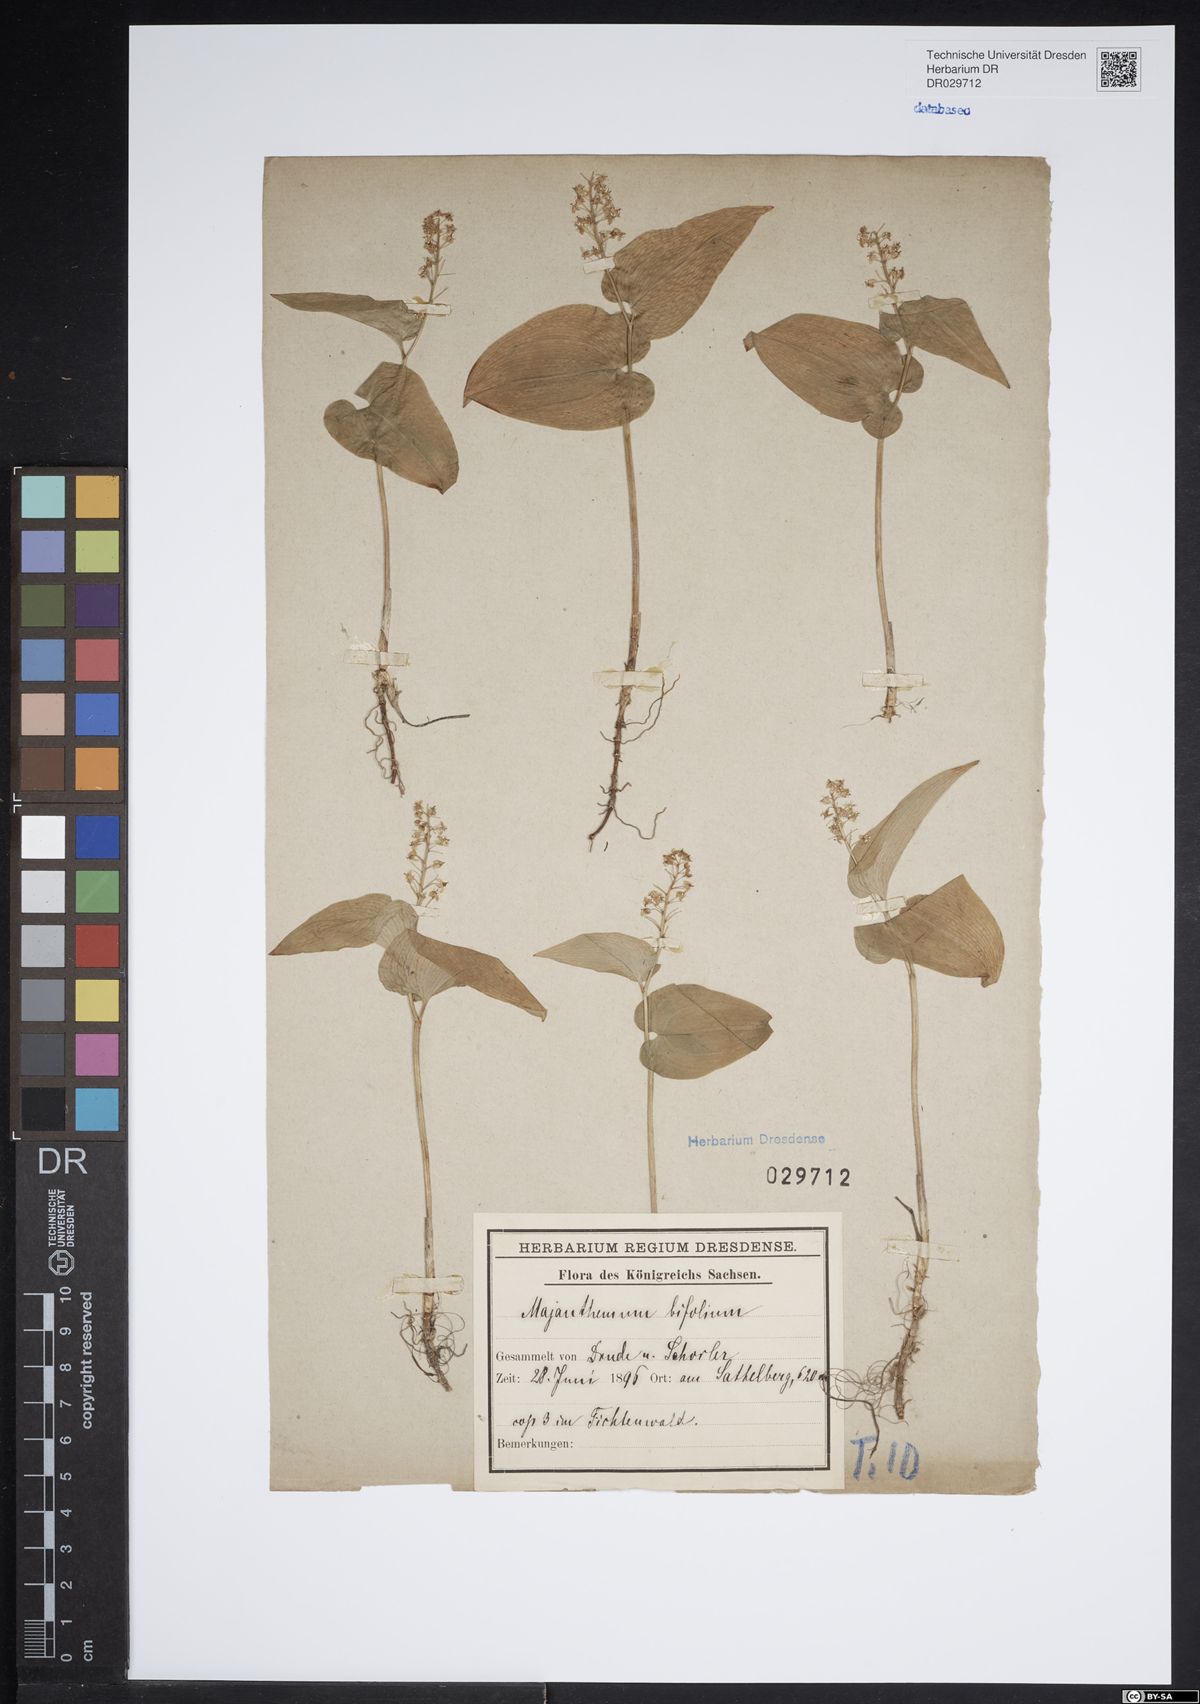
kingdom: Plantae
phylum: Tracheophyta
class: Liliopsida
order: Asparagales
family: Asparagaceae
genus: Maianthemum
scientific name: Maianthemum bifolium
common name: May lily
